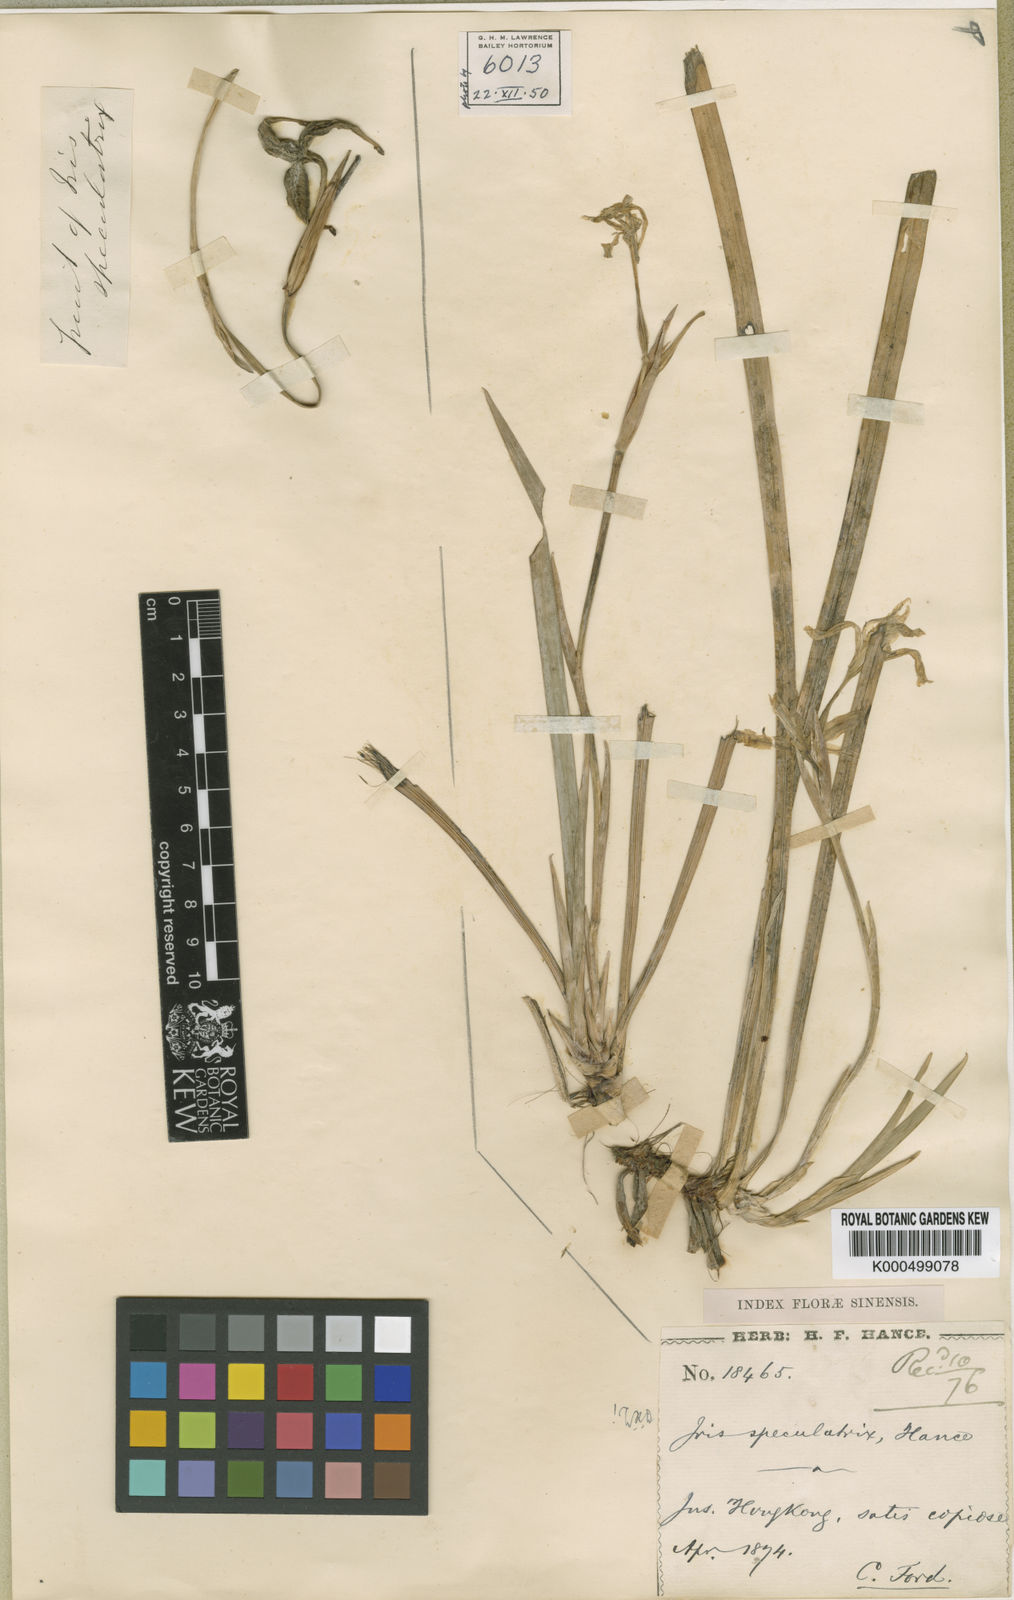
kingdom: Plantae
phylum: Tracheophyta
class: Liliopsida
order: Asparagales
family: Iridaceae
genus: Iris
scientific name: Iris speculatrix
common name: Small-flower iris
